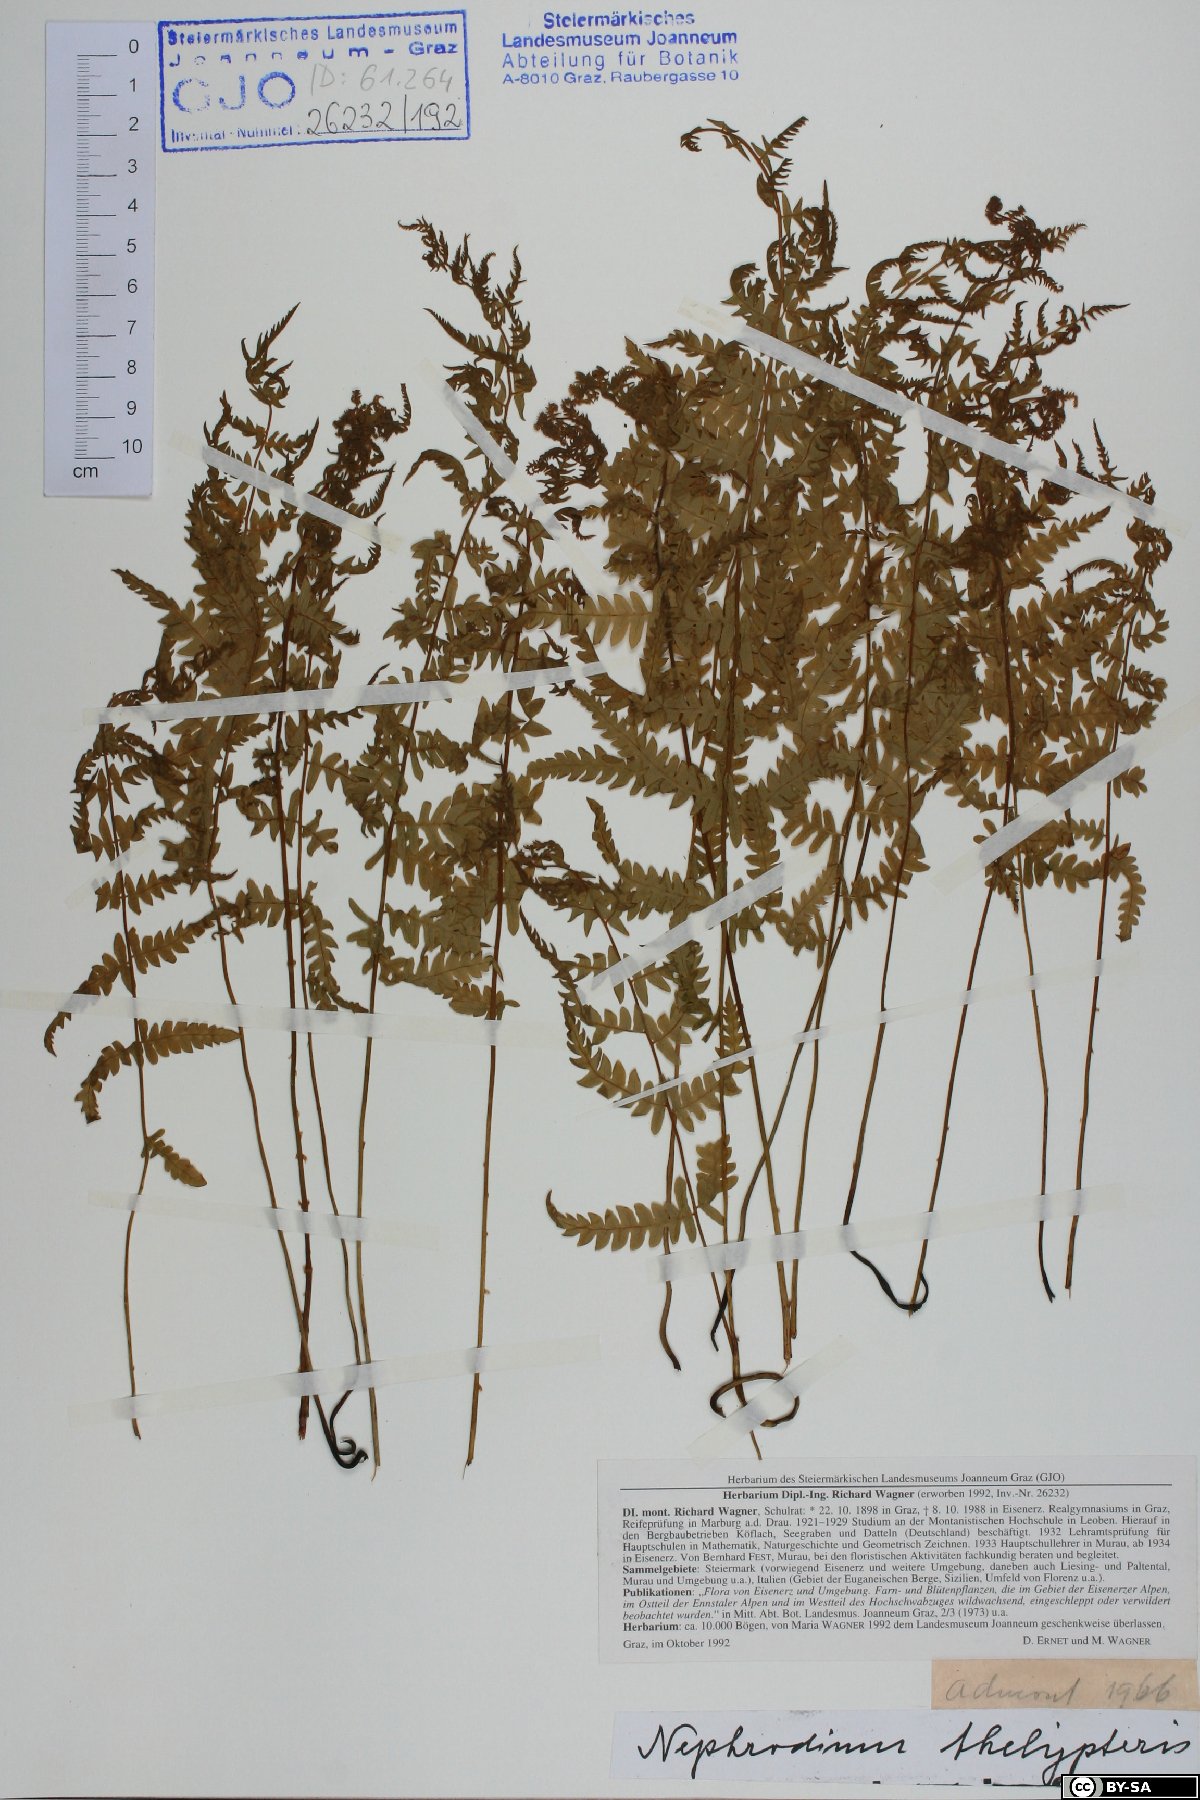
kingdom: Plantae
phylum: Tracheophyta
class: Polypodiopsida
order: Polypodiales
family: Thelypteridaceae
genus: Thelypteris
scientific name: Thelypteris palustris
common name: Marsh fern
